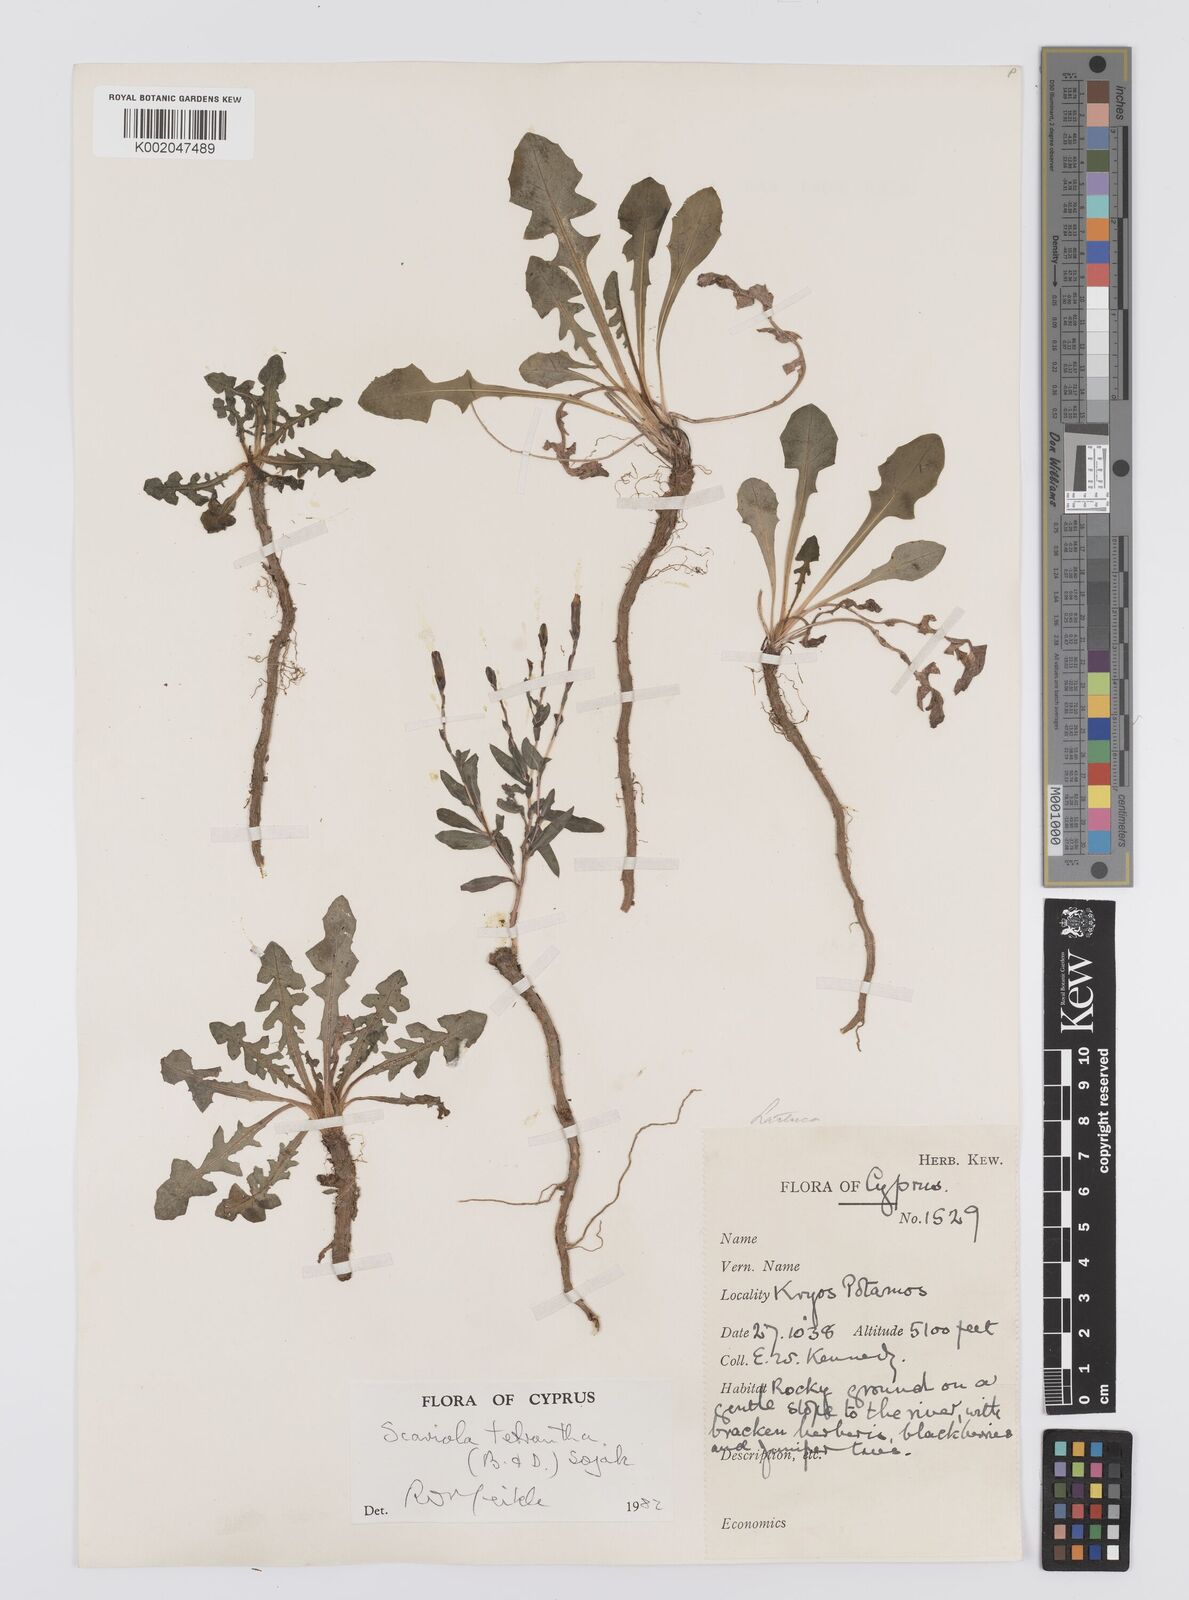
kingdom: Plantae
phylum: Tracheophyta
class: Magnoliopsida
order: Asterales
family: Asteraceae
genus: Lactuca
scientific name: Lactuca tetrantha
